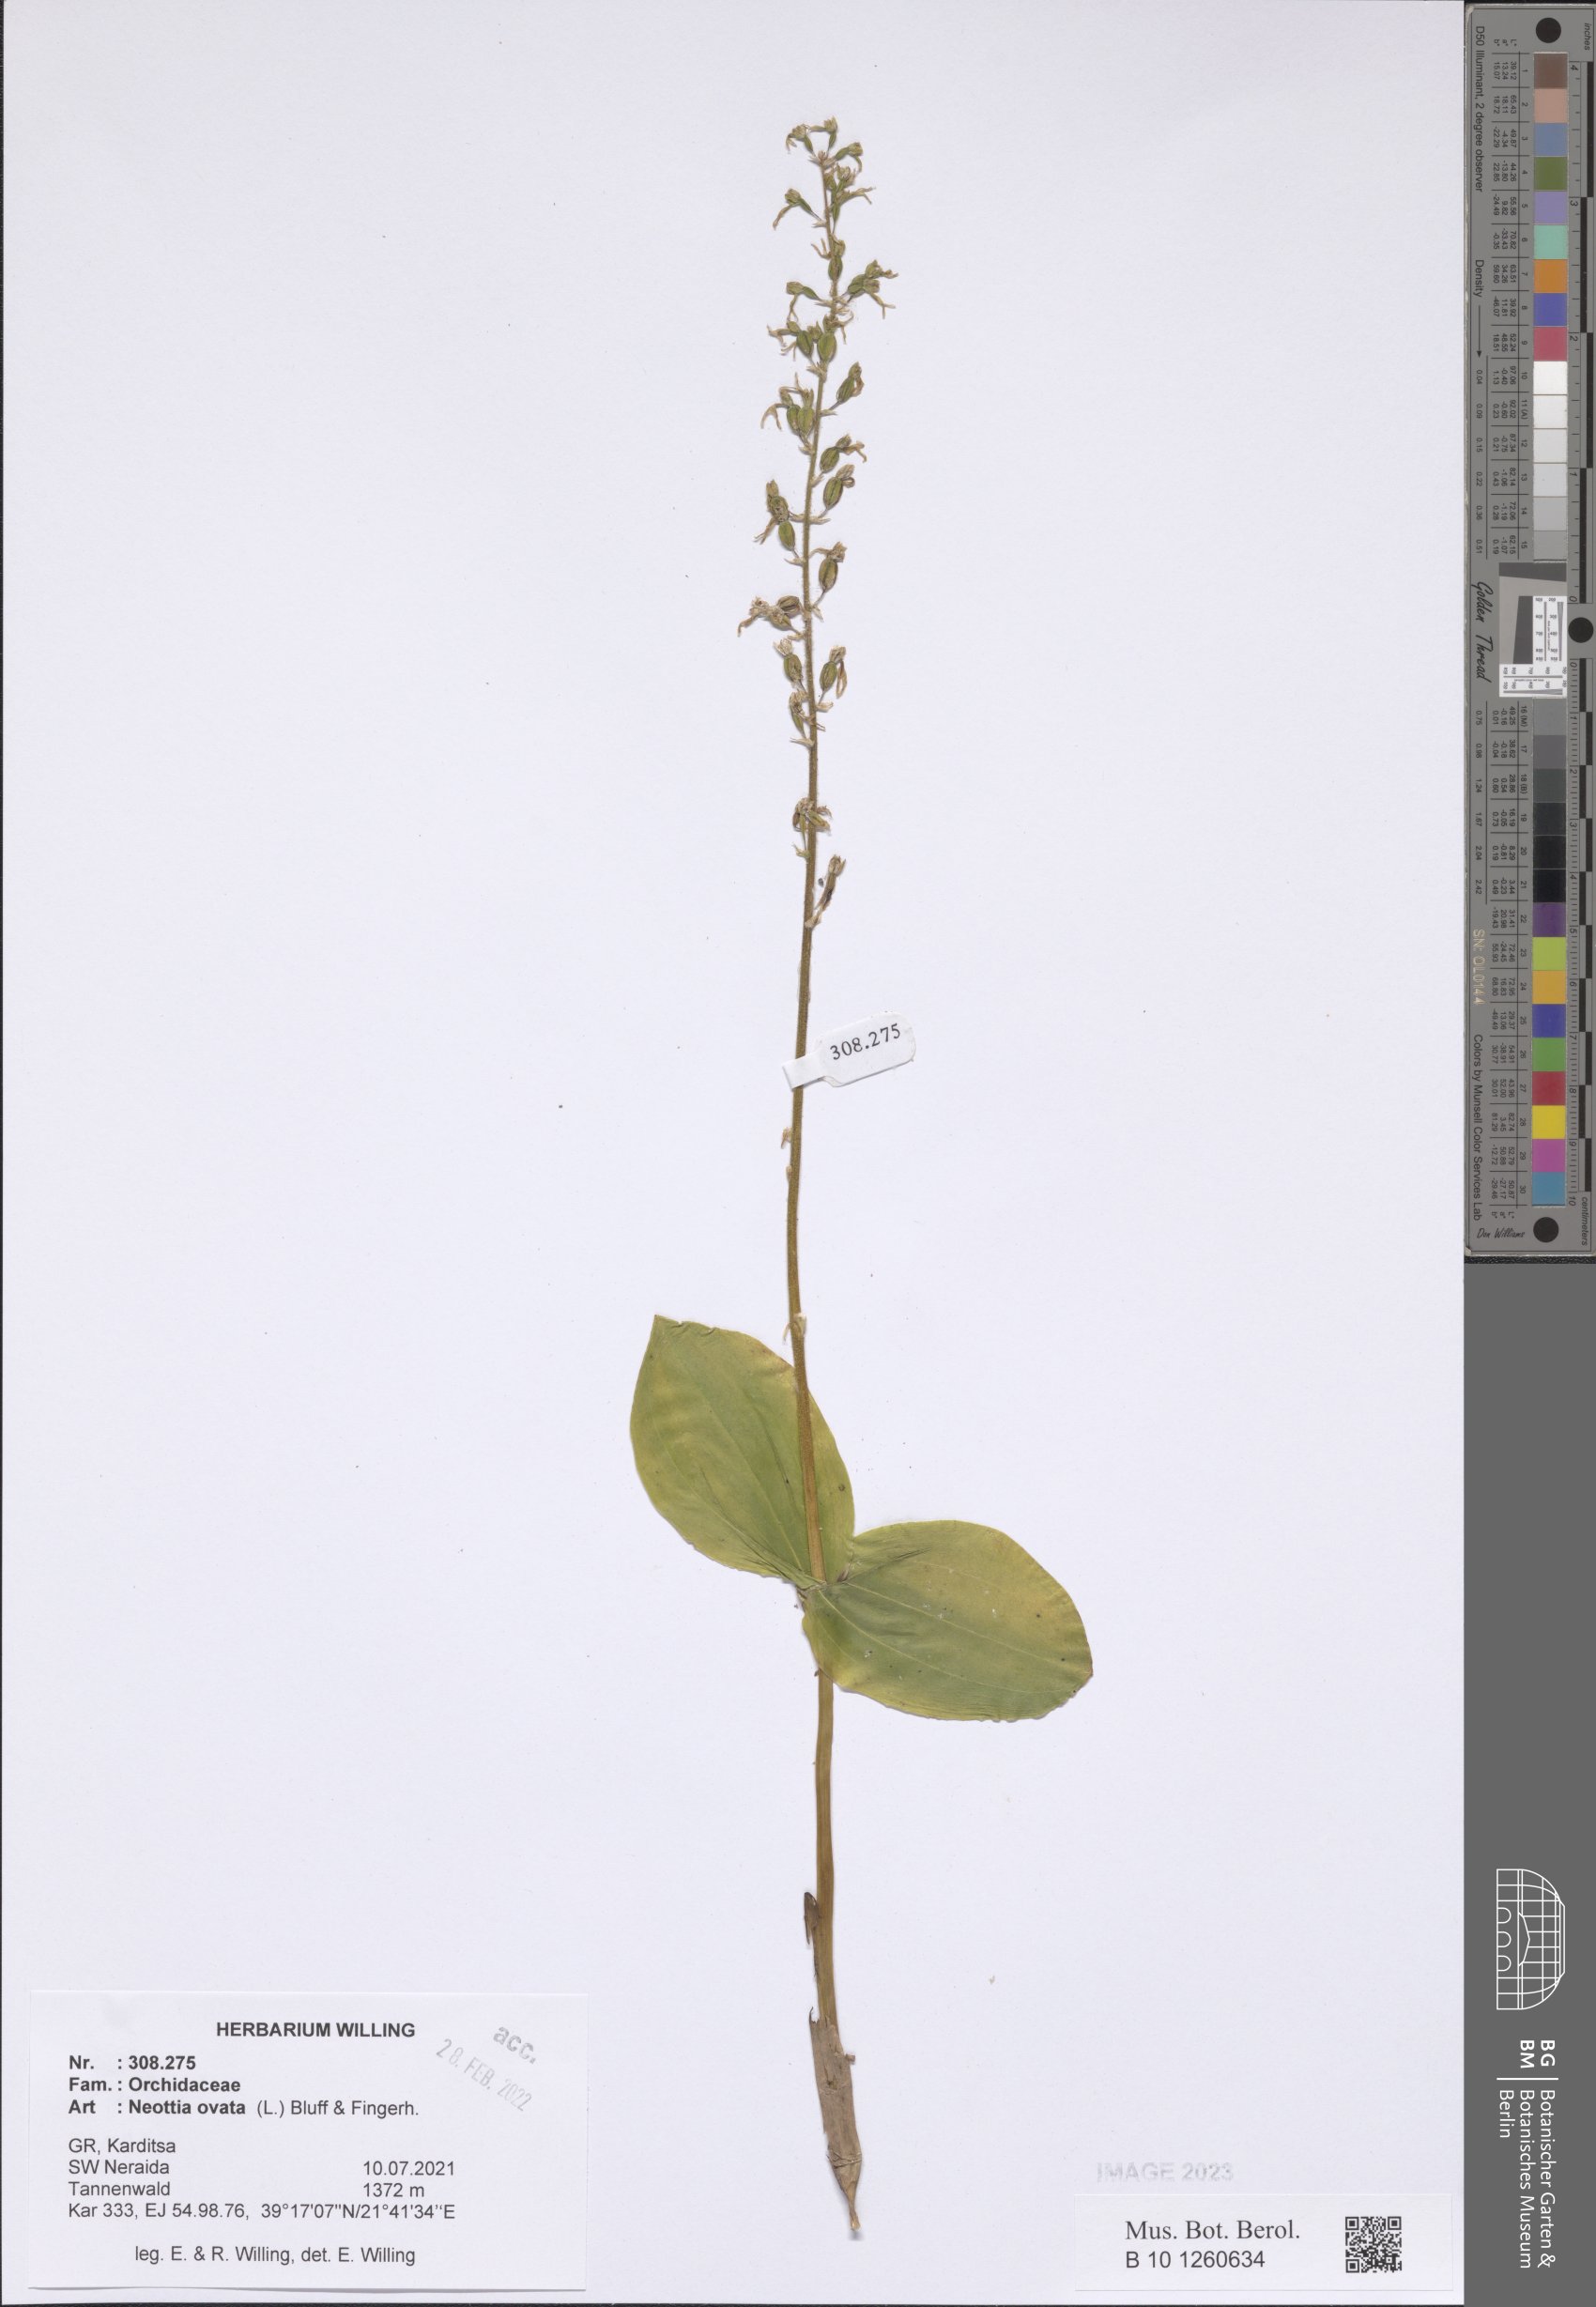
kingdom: Plantae
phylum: Tracheophyta
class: Liliopsida
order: Asparagales
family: Orchidaceae
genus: Neottia
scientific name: Neottia ovata
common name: Common twayblade
